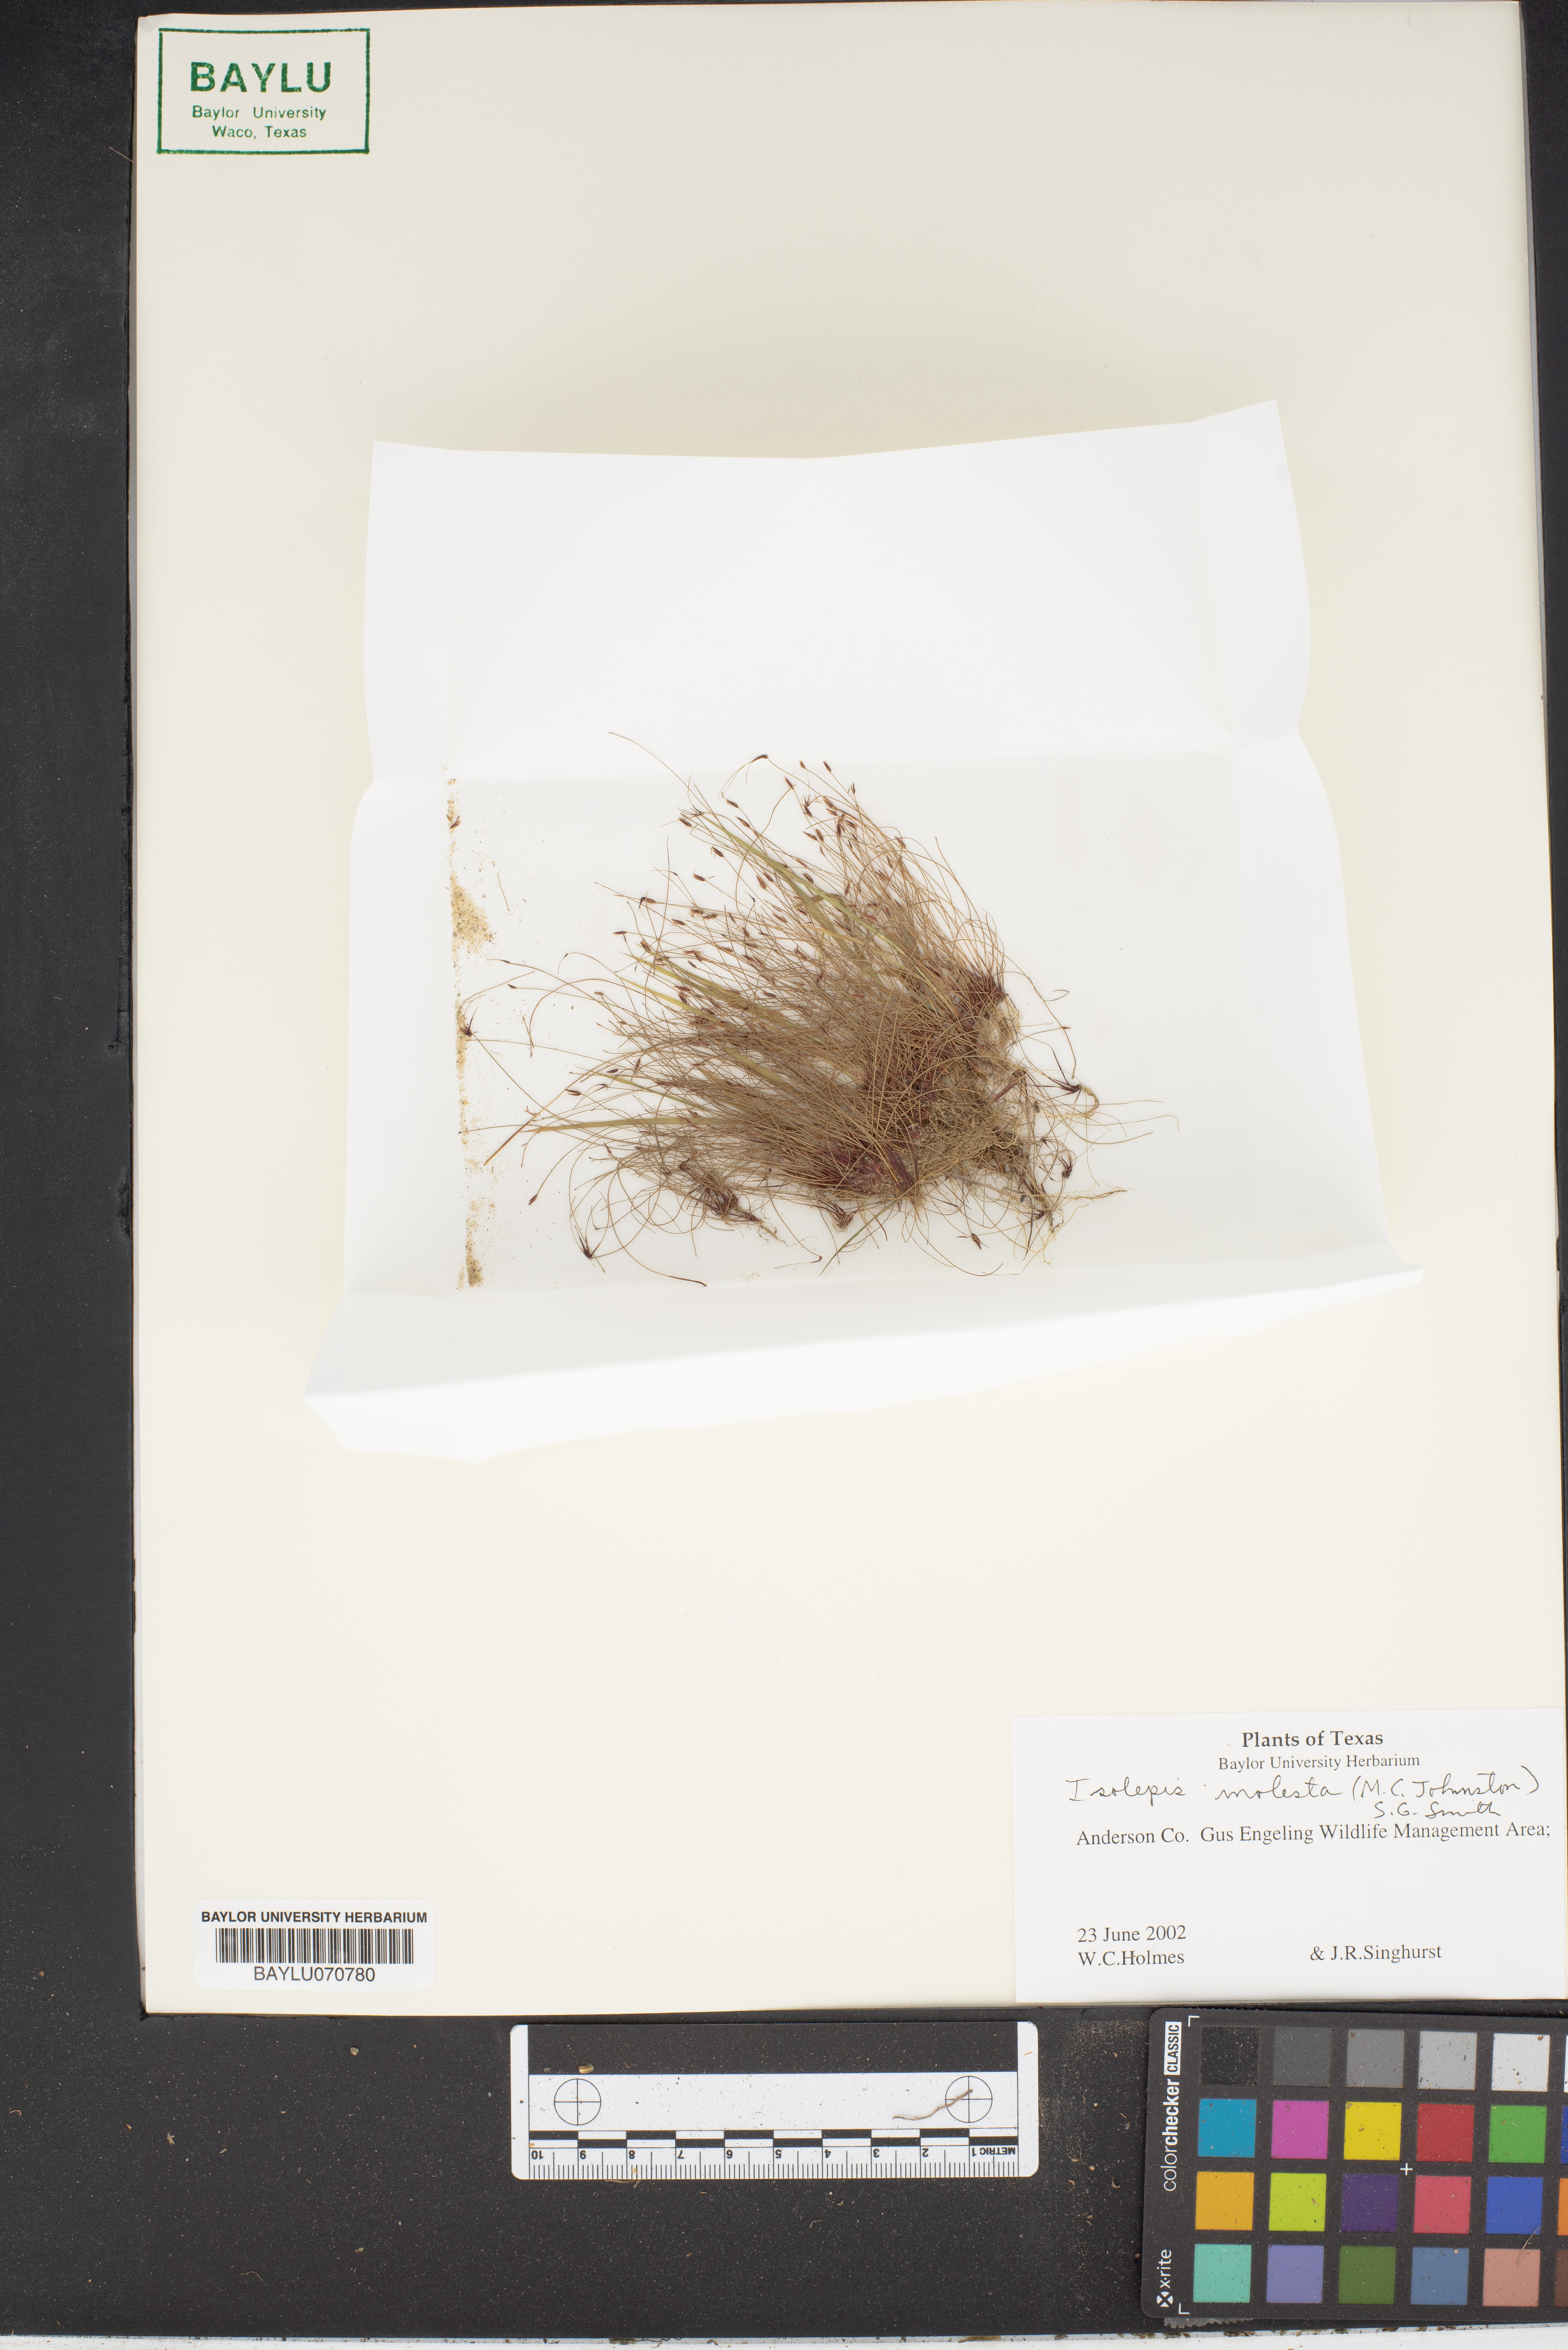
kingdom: Plantae
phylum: Tracheophyta
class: Liliopsida
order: Poales
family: Cyperaceae
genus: Isolepis
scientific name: Isolepis pseudosetacea
